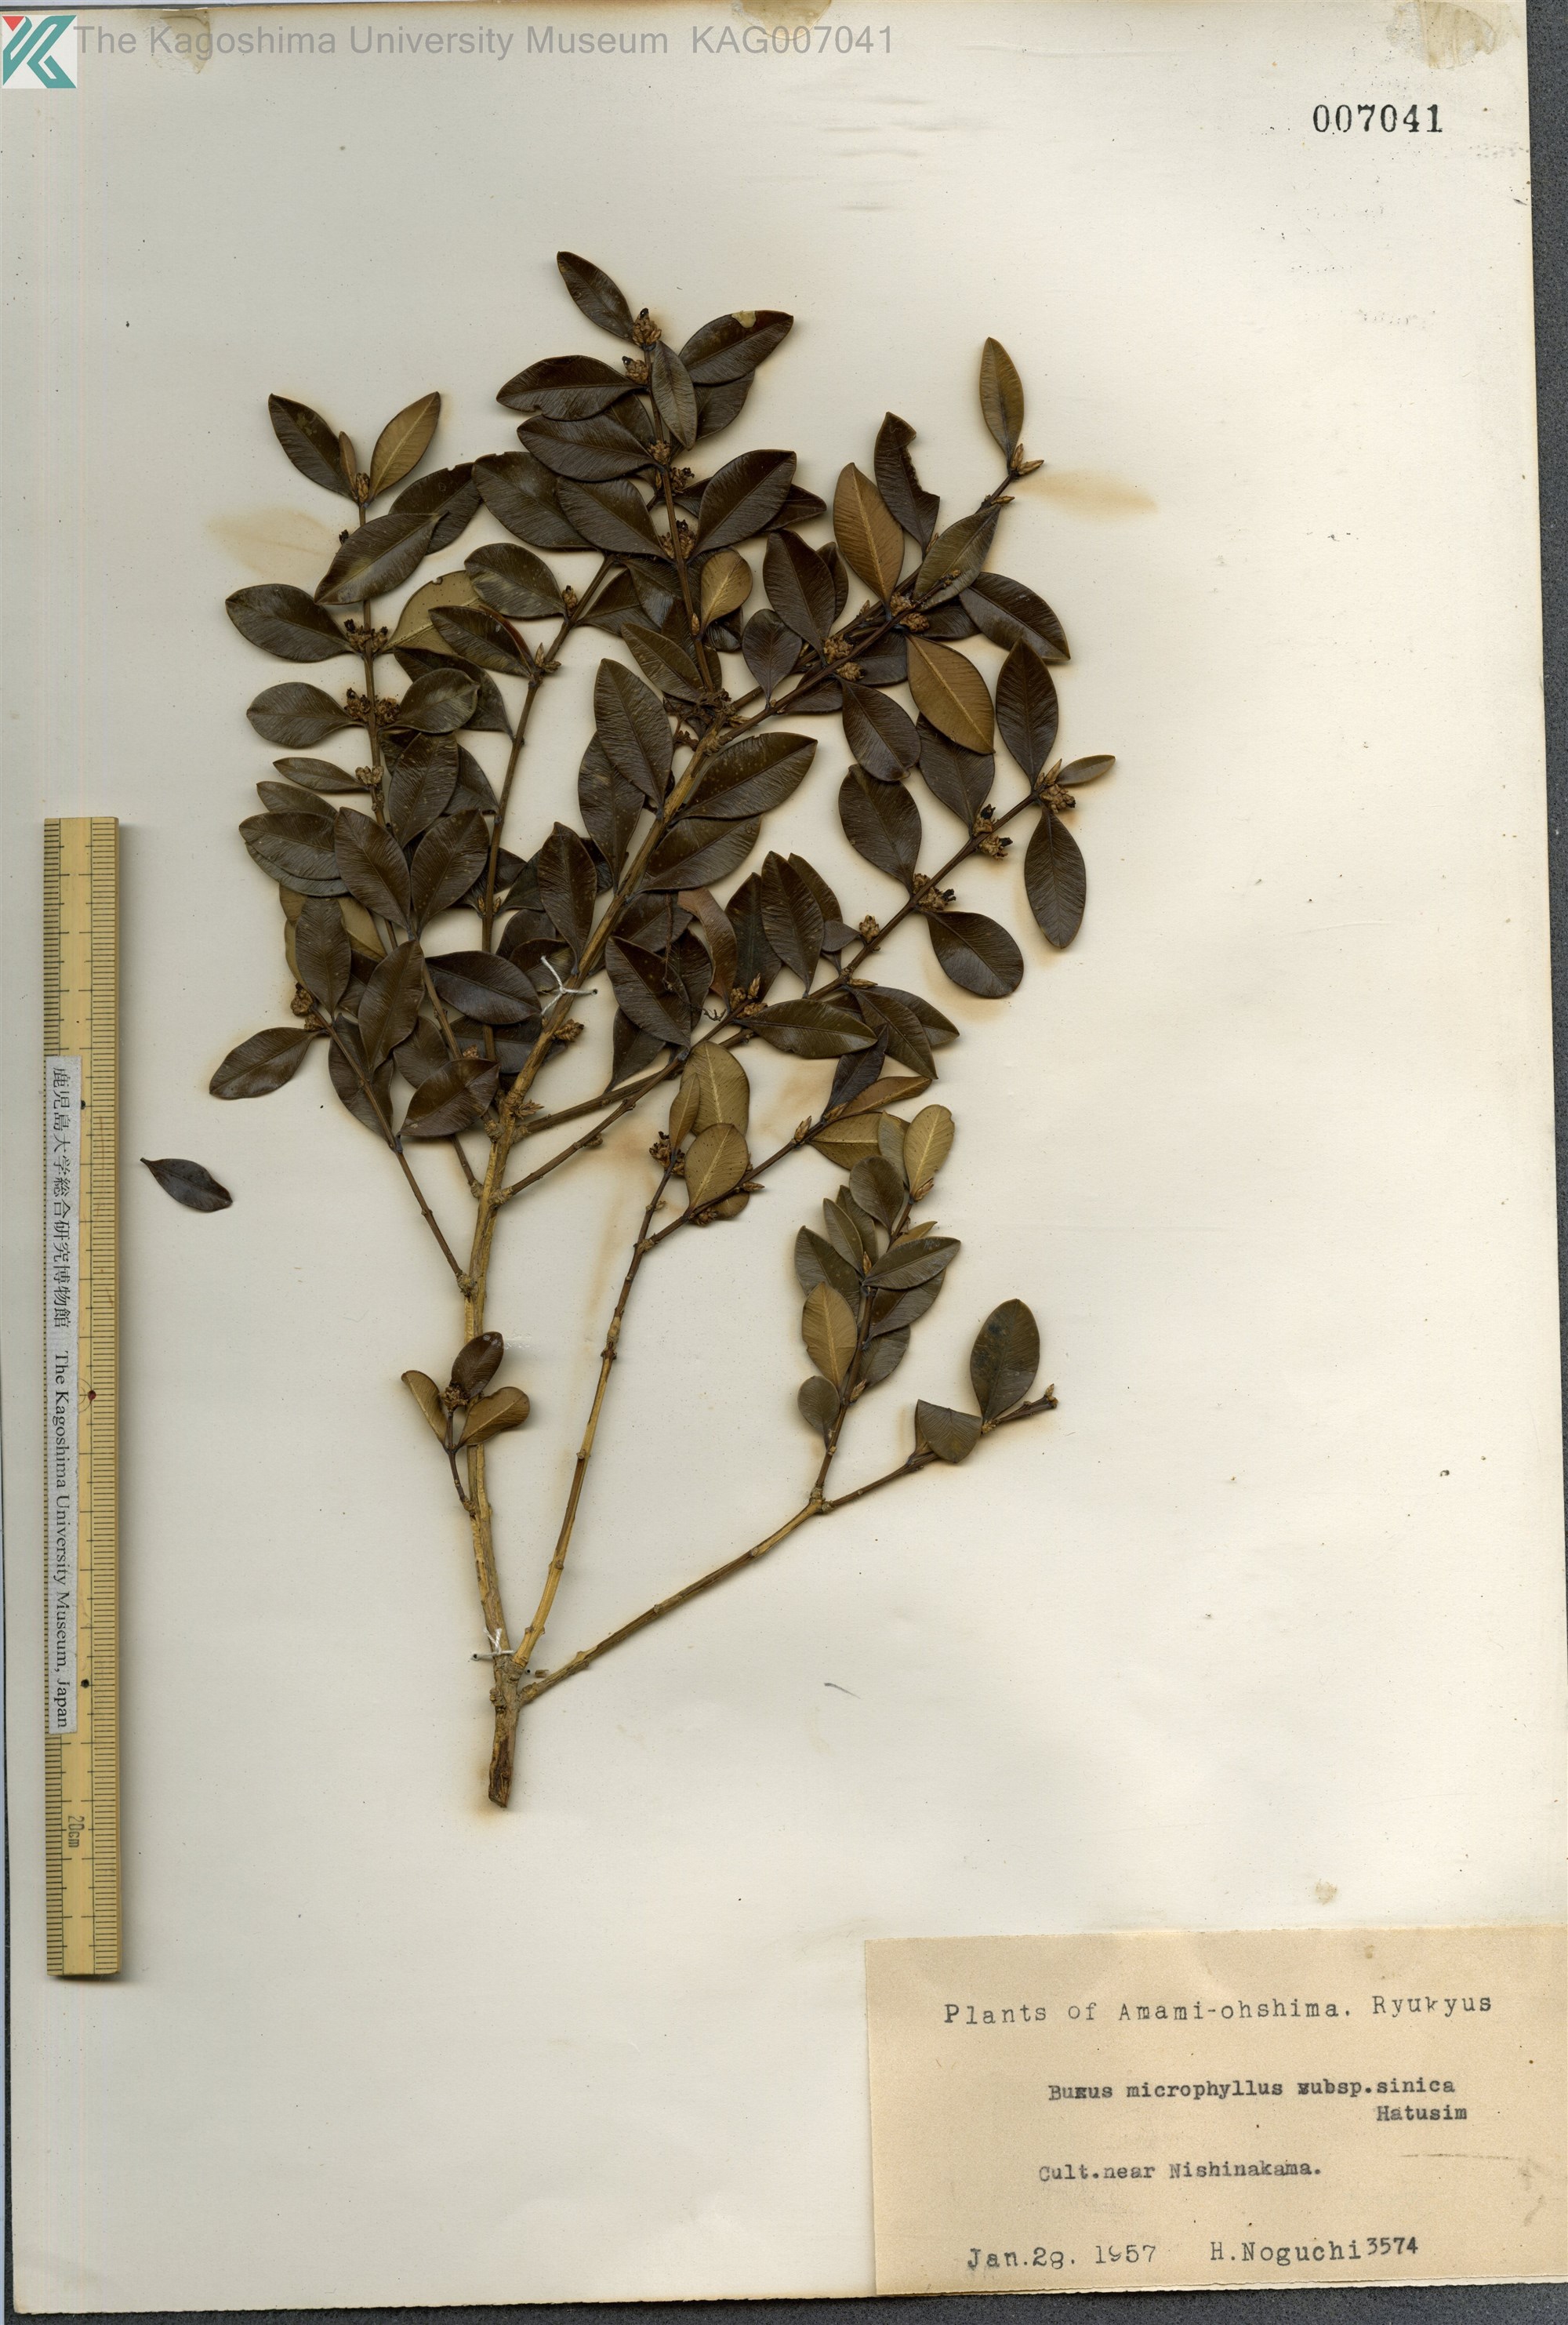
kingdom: Plantae
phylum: Tracheophyta
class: Magnoliopsida
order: Buxales
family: Buxaceae
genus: Buxus
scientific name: Buxus sinica
